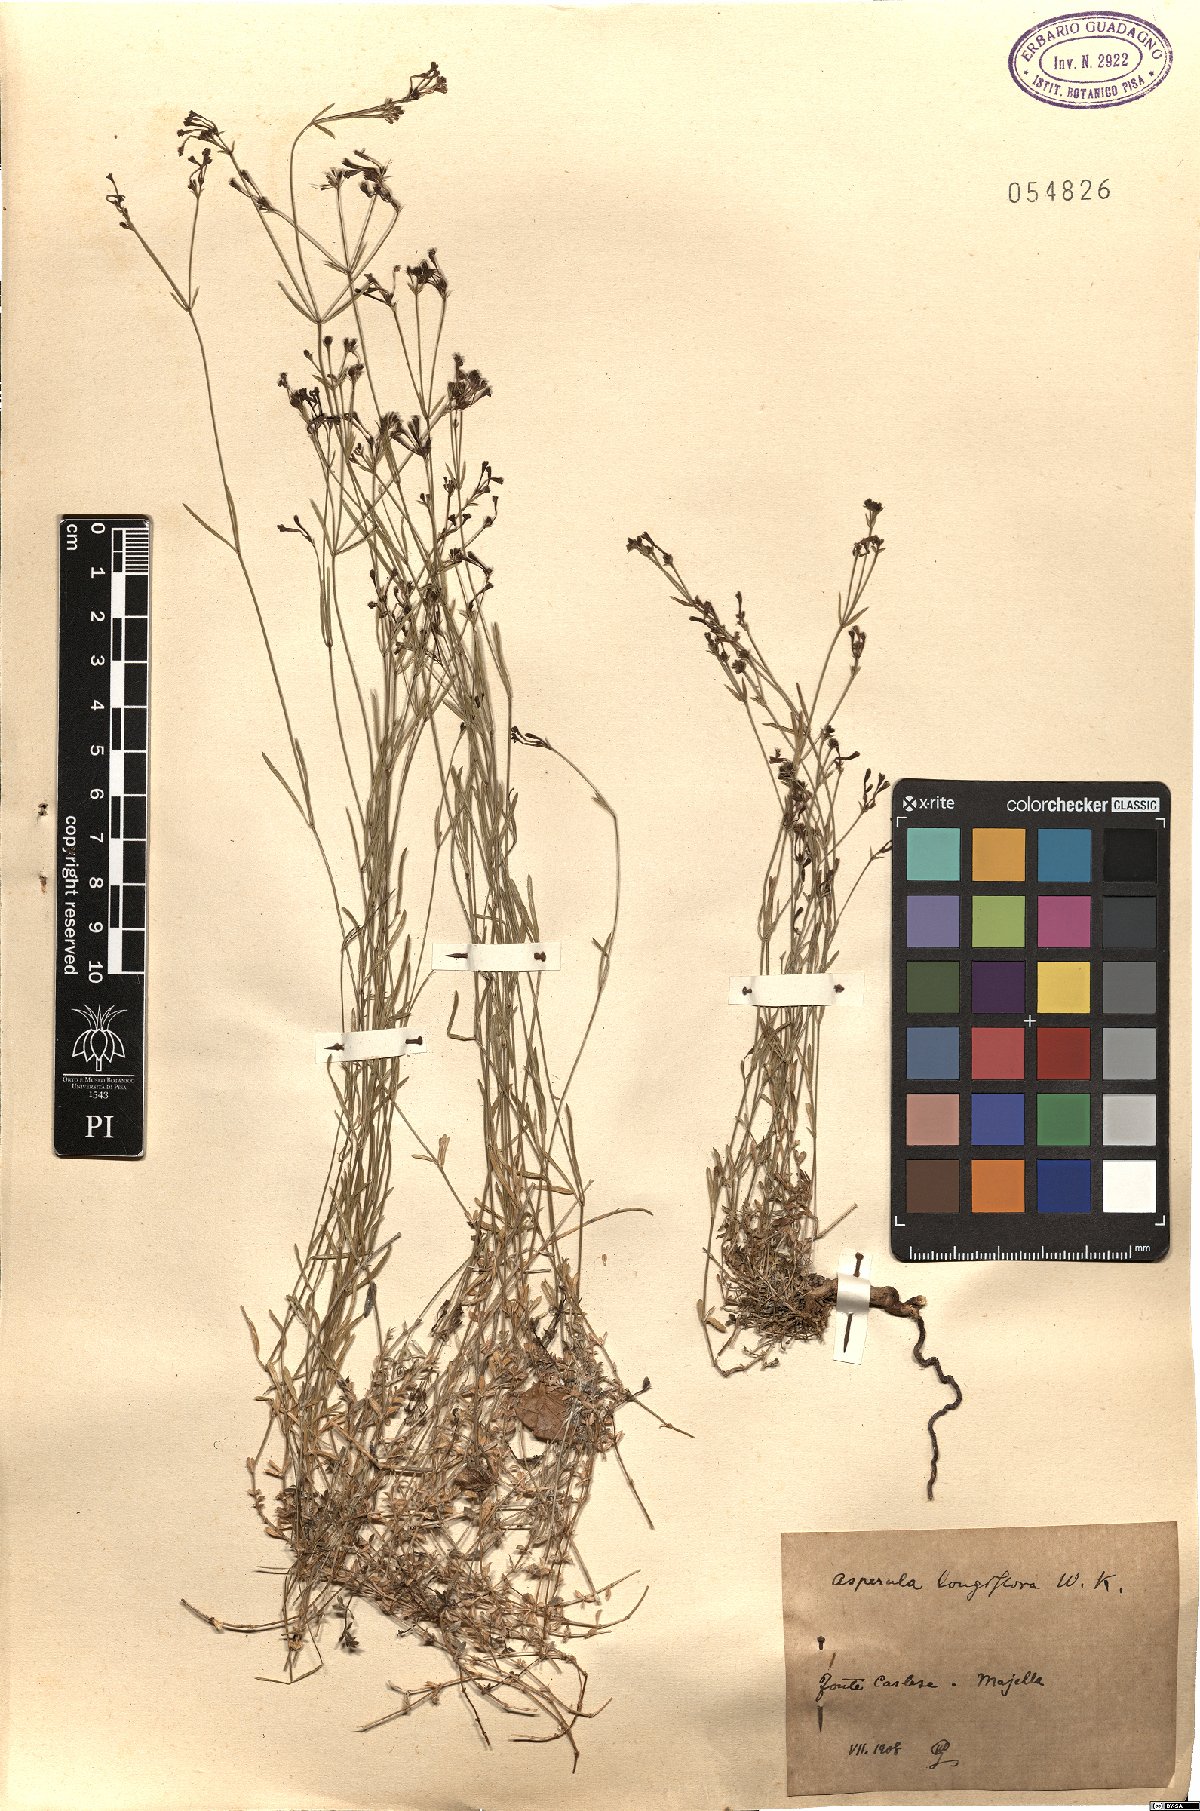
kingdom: Plantae
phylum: Tracheophyta
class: Magnoliopsida
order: Gentianales
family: Rubiaceae
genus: Cynanchica
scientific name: Cynanchica aristata
